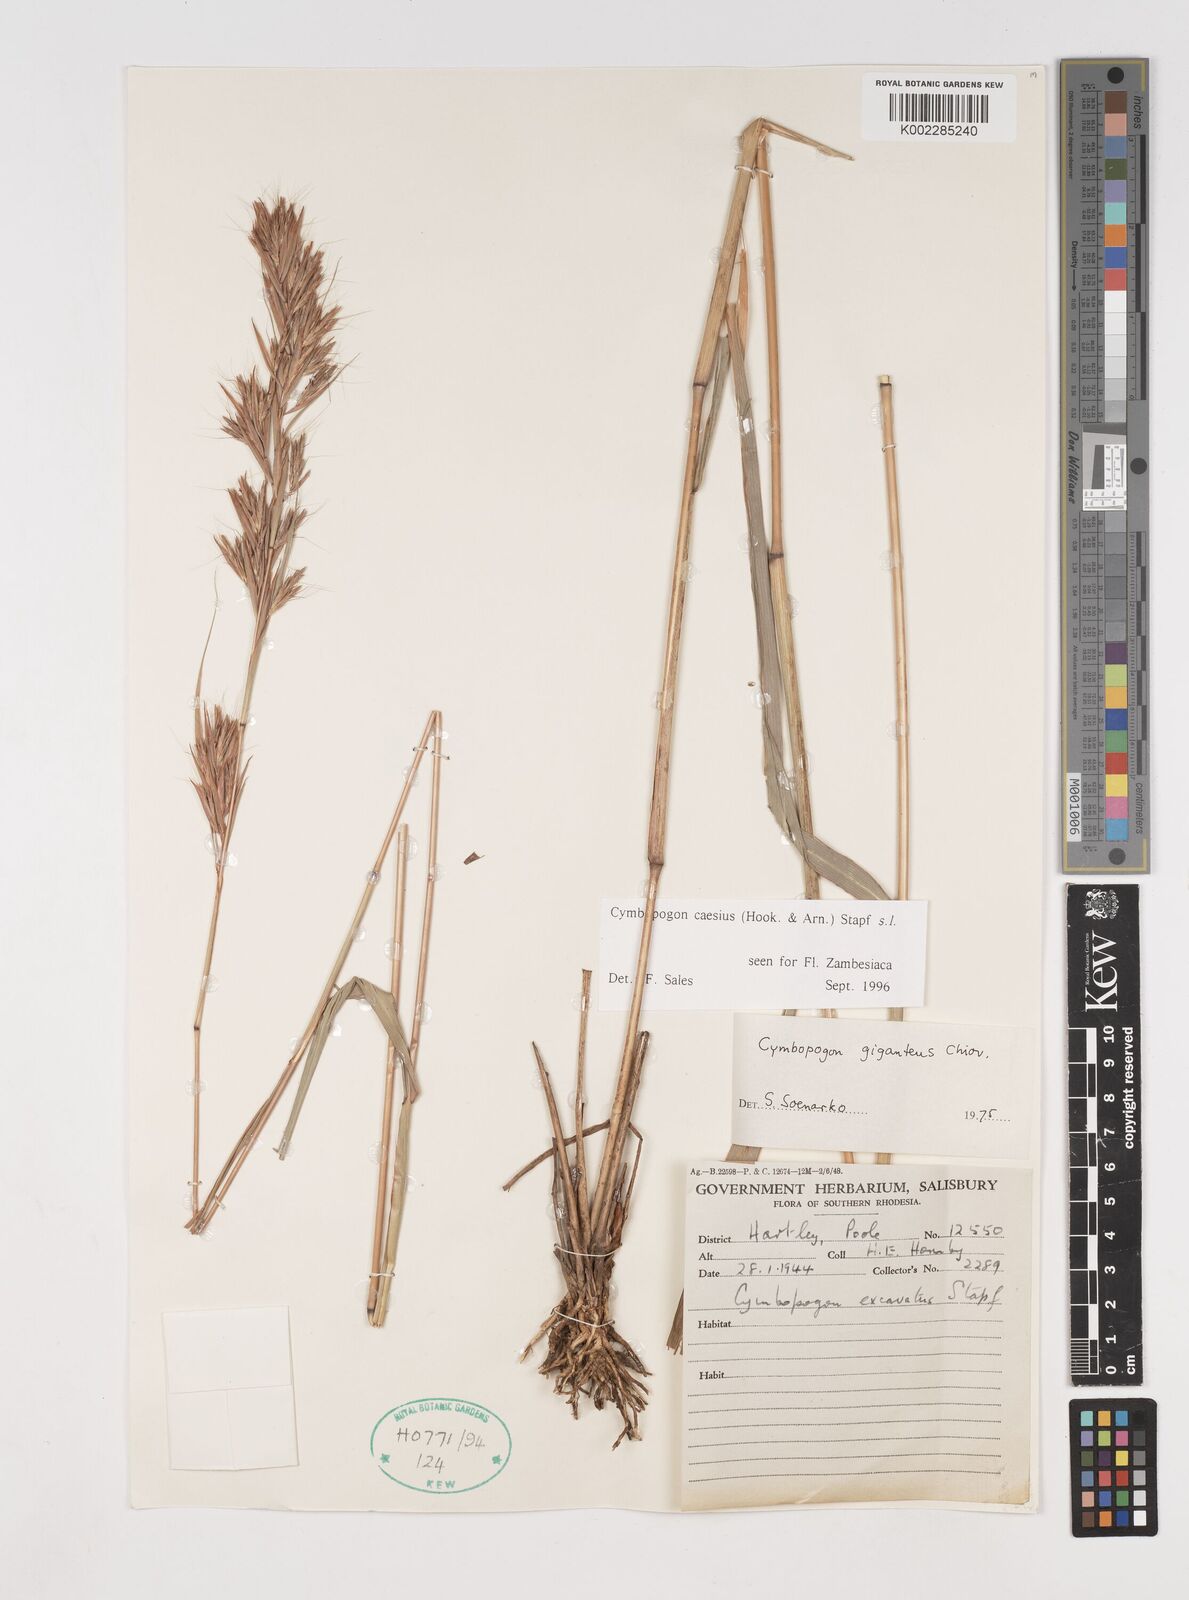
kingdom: Plantae
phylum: Tracheophyta
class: Liliopsida
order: Poales
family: Poaceae
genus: Cymbopogon
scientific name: Cymbopogon caesius
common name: Kachi grass
